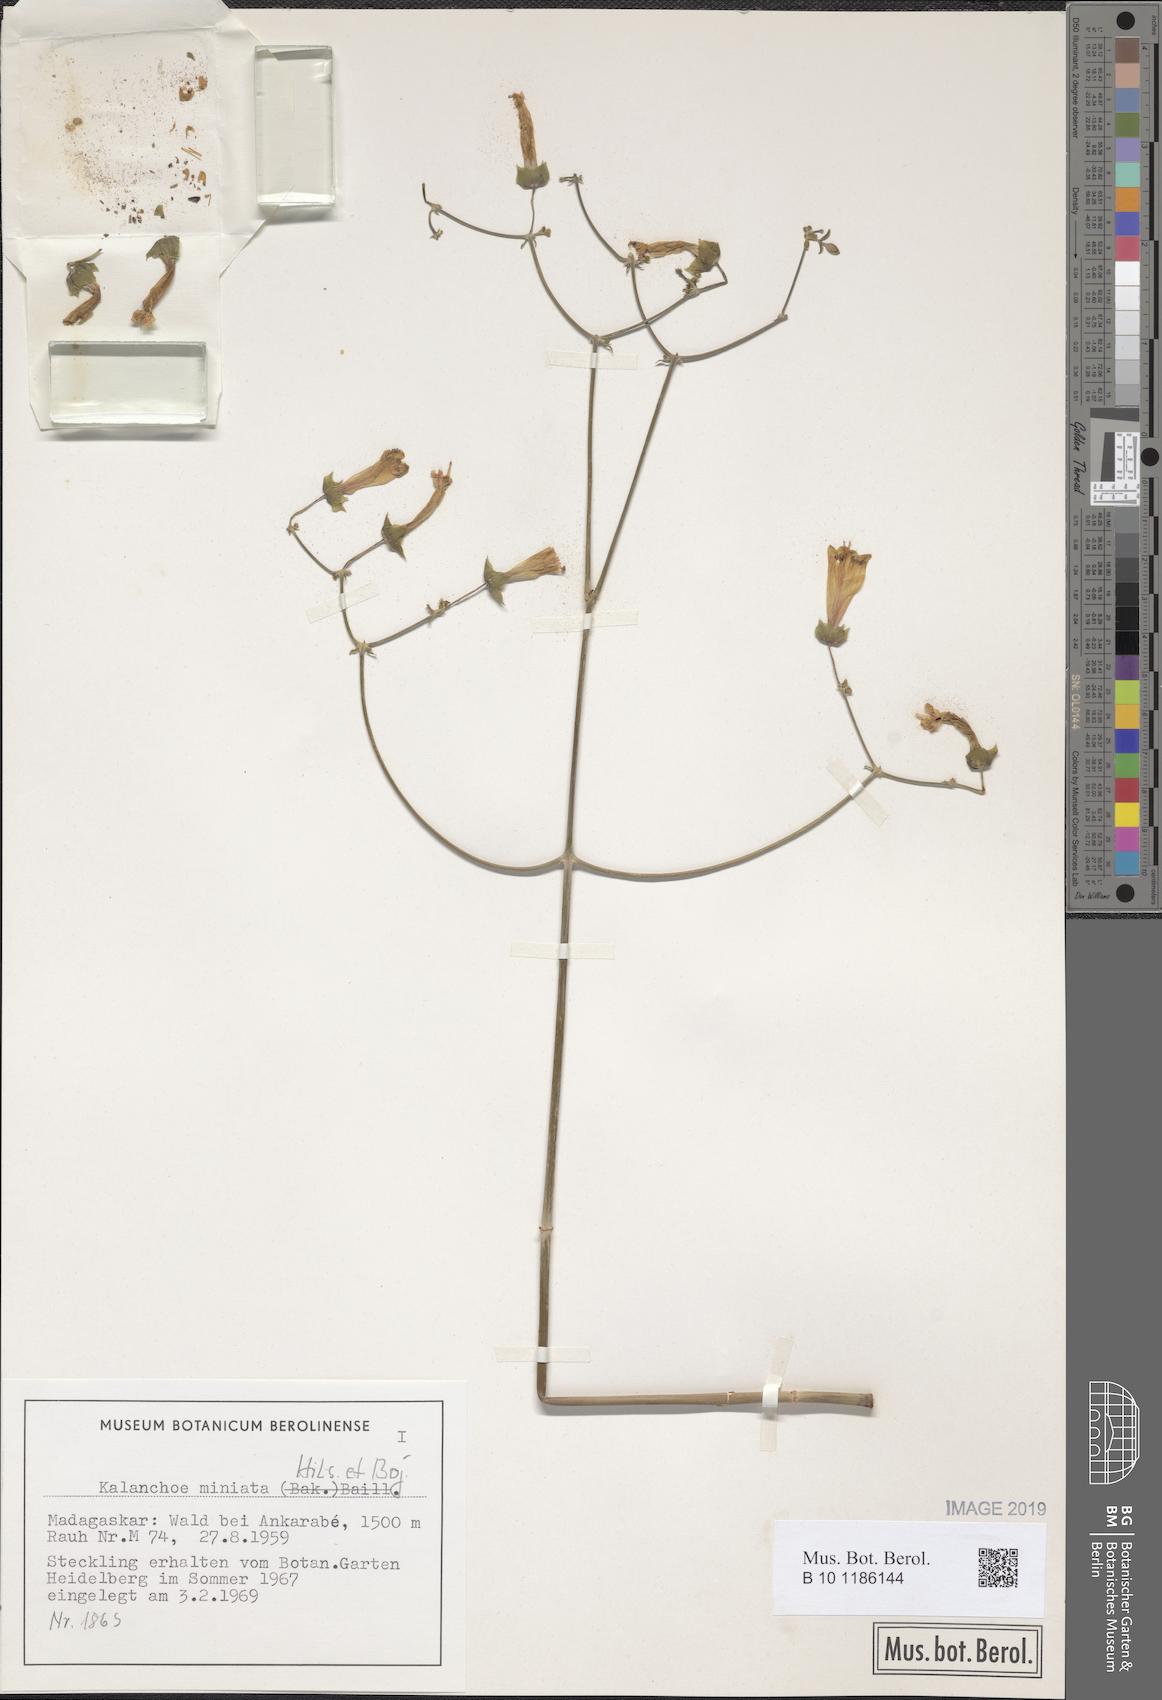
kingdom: Plantae
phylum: Tracheophyta
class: Magnoliopsida
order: Saxifragales
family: Crassulaceae
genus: Kalanchoe
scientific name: Kalanchoe miniata
